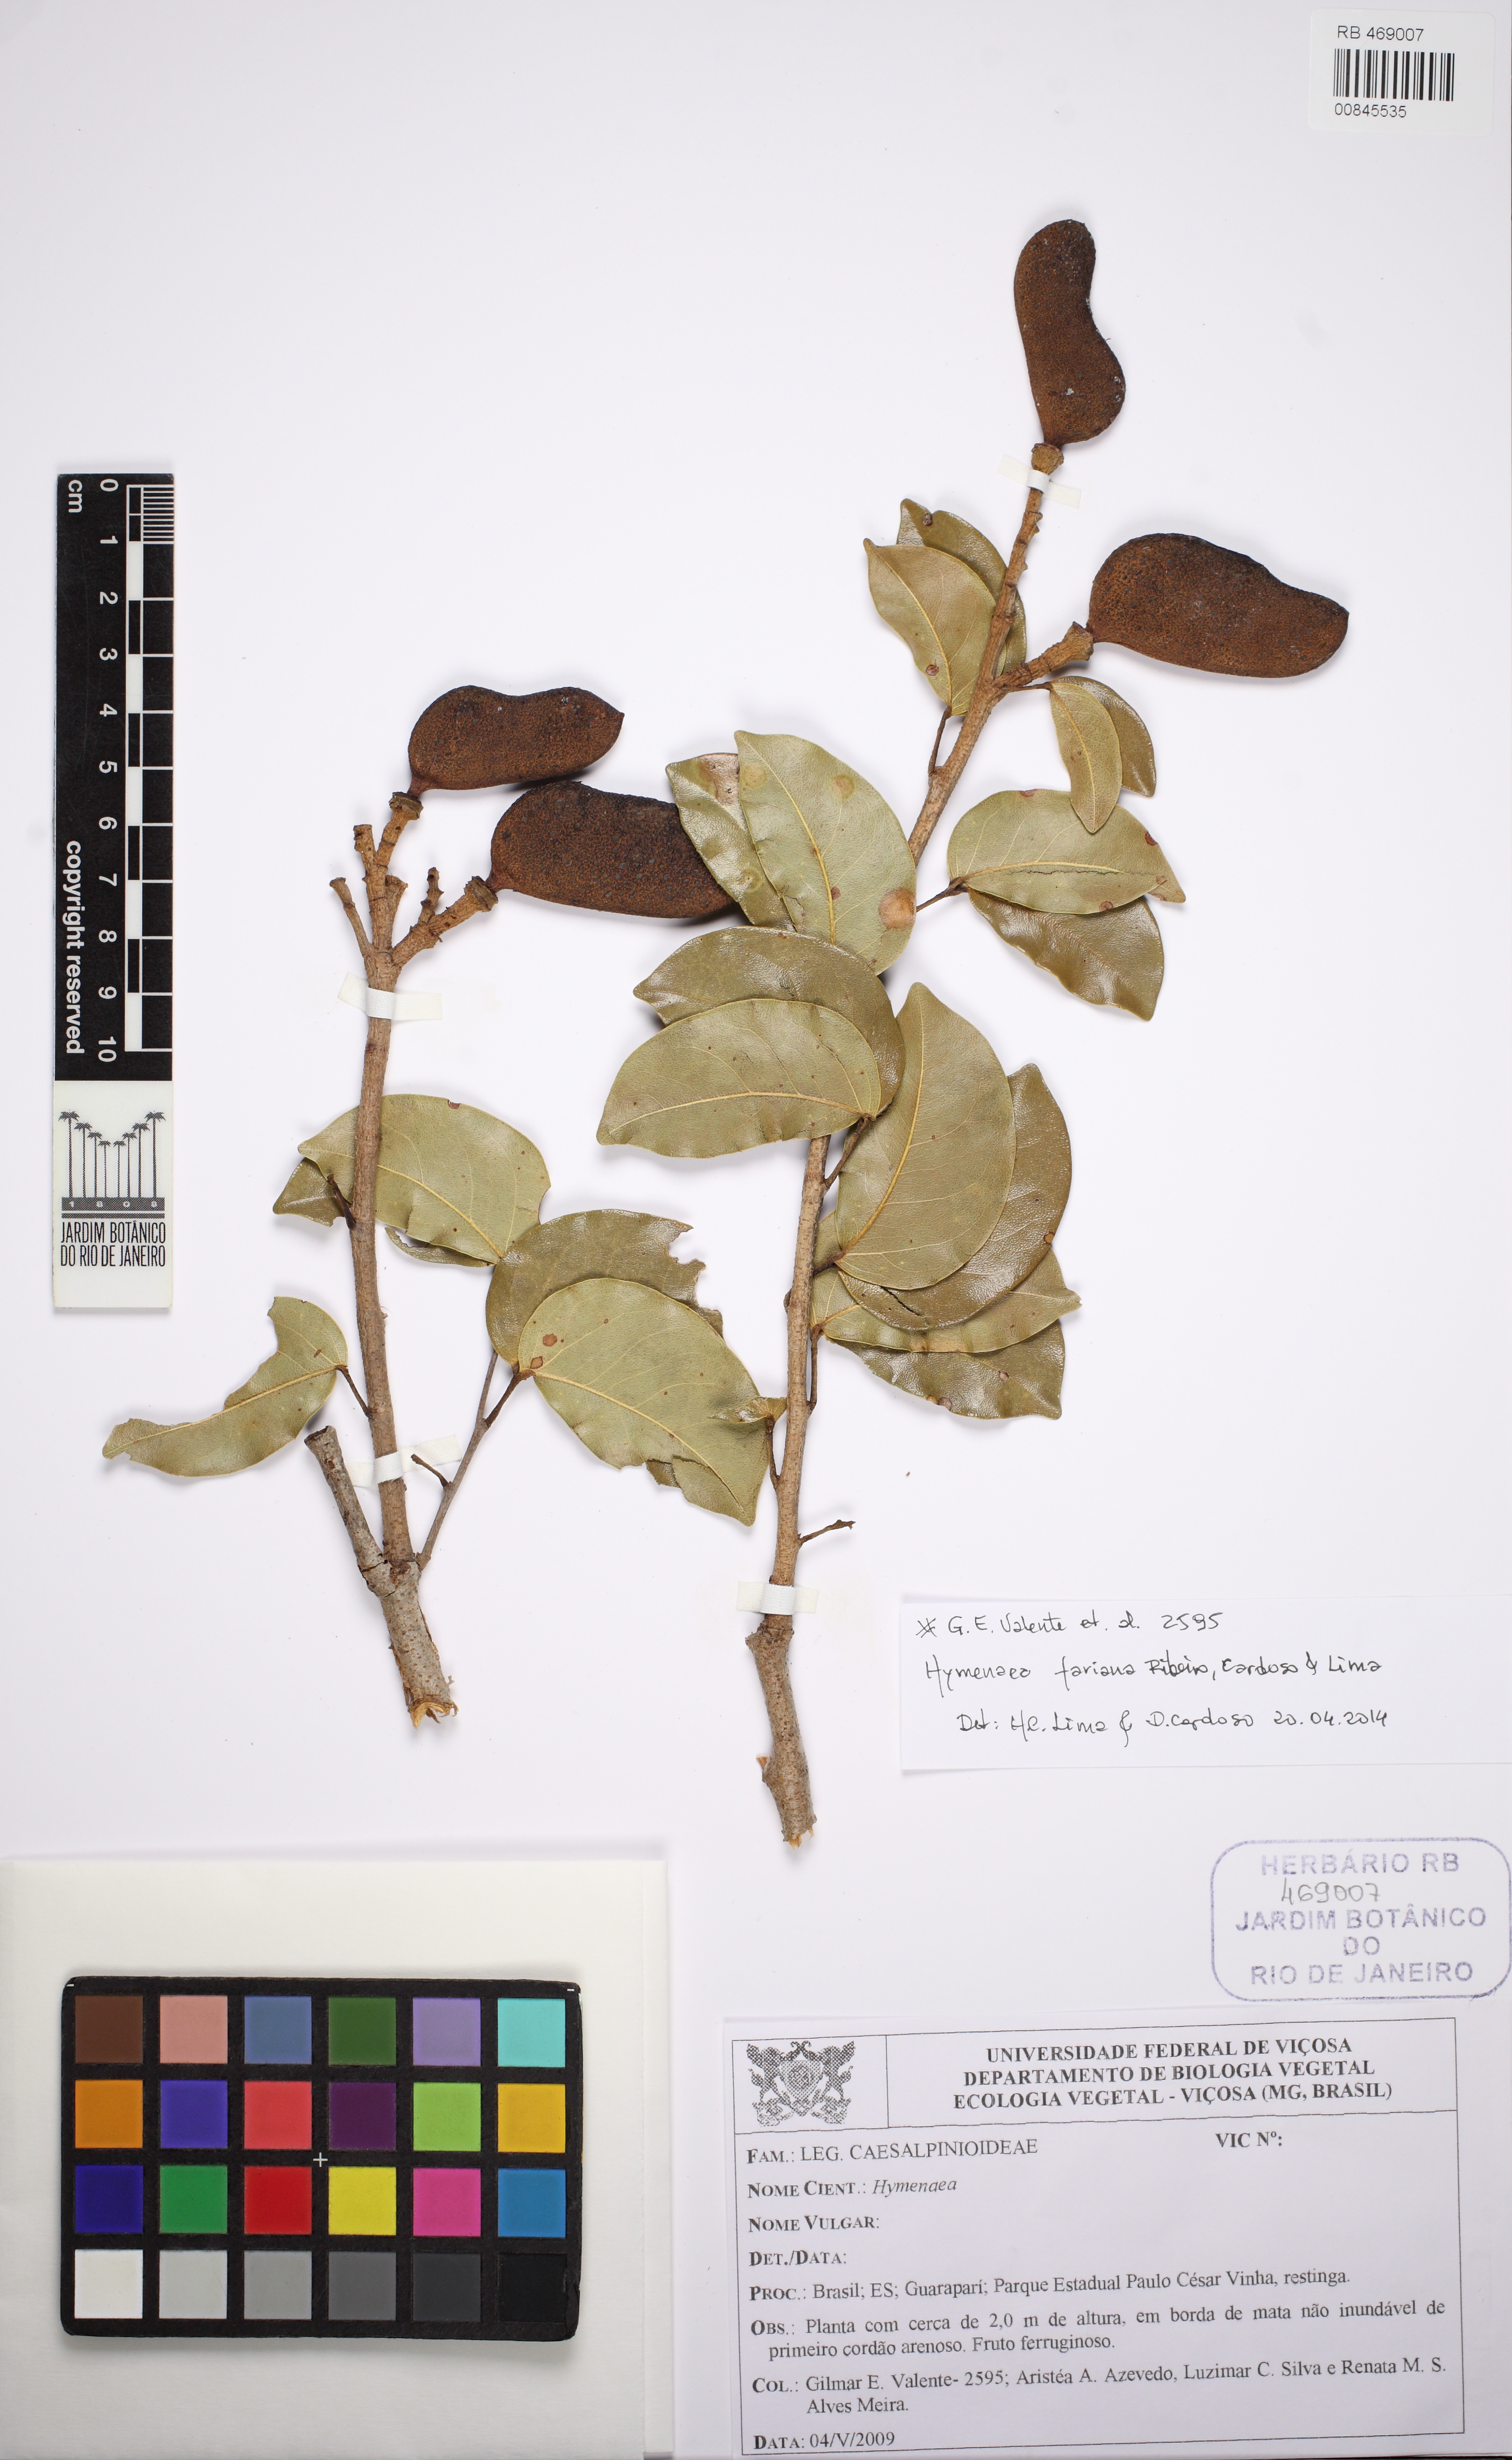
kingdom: Plantae
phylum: Tracheophyta
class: Magnoliopsida
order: Fabales
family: Fabaceae
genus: Hymenaea
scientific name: Hymenaea fariana
